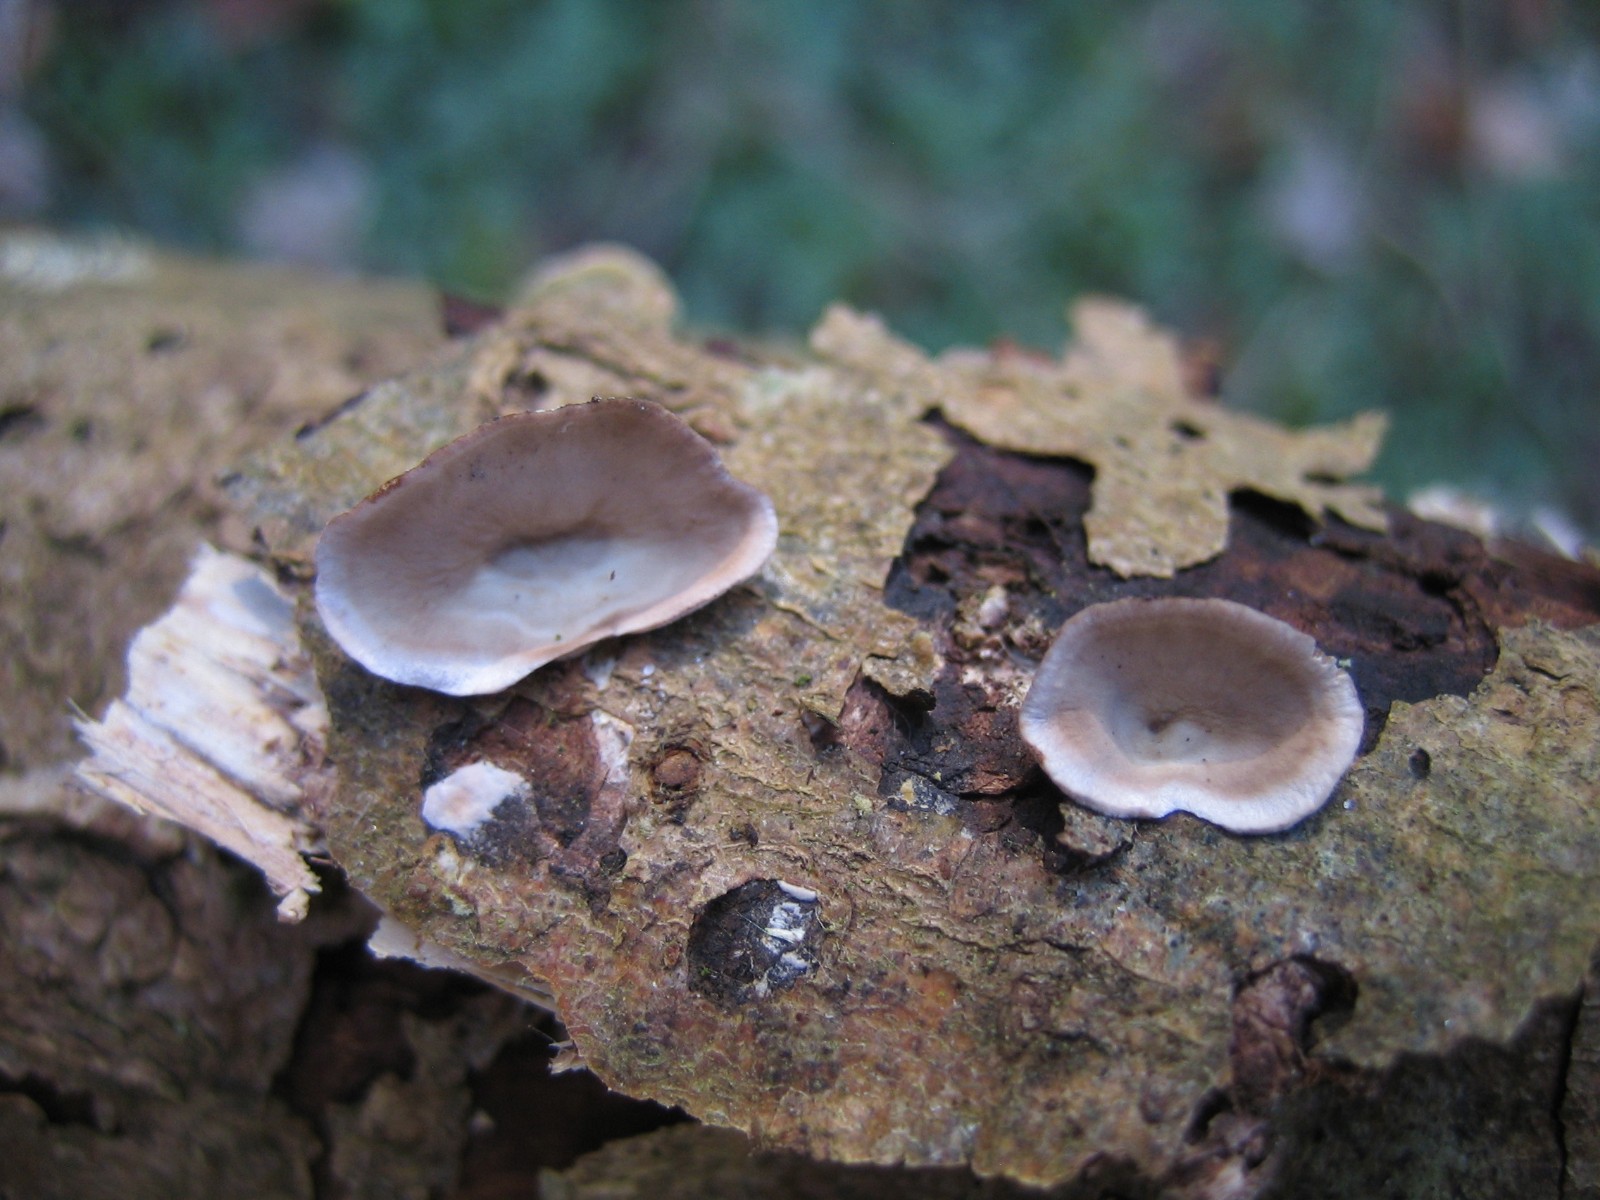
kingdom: Fungi
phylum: Basidiomycota
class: Agaricomycetes
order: Russulales
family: Stereaceae
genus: Stereum
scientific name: Stereum hirsutum
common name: håret lædersvamp
